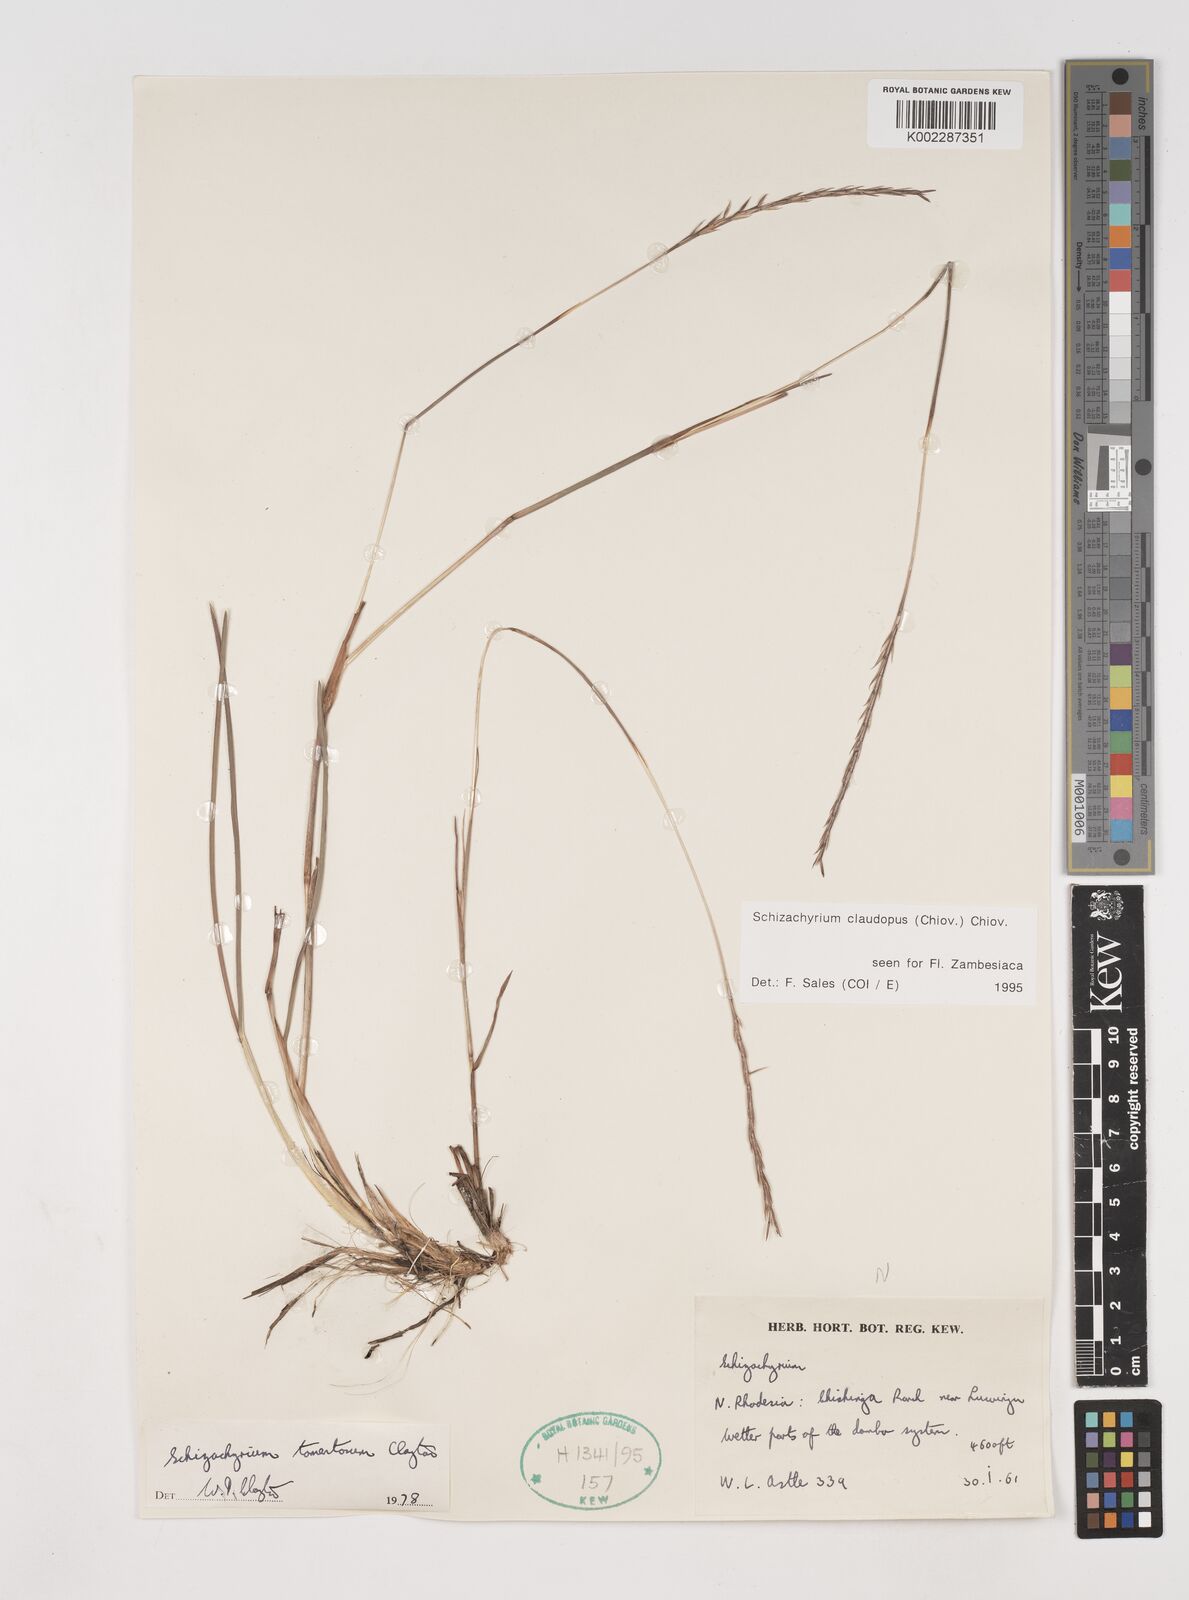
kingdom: Plantae
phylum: Tracheophyta
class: Liliopsida
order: Poales
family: Poaceae
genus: Schizachyrium
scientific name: Schizachyrium claudopus
